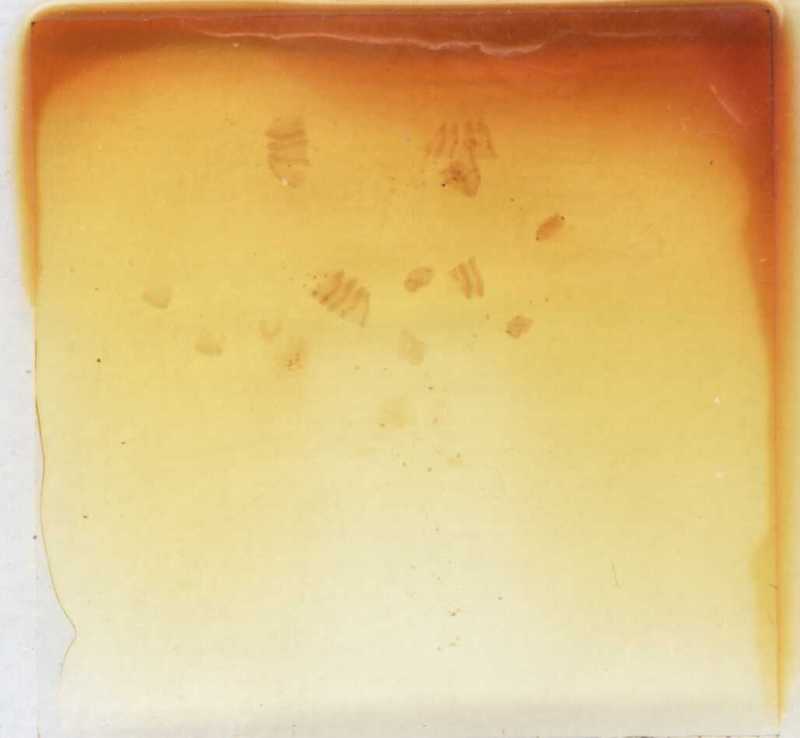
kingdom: Animalia
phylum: Arthropoda
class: Diplopoda
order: Glomerida
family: Glomeridae
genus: Trachysphaera
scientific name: Trachysphaera schmidtii
